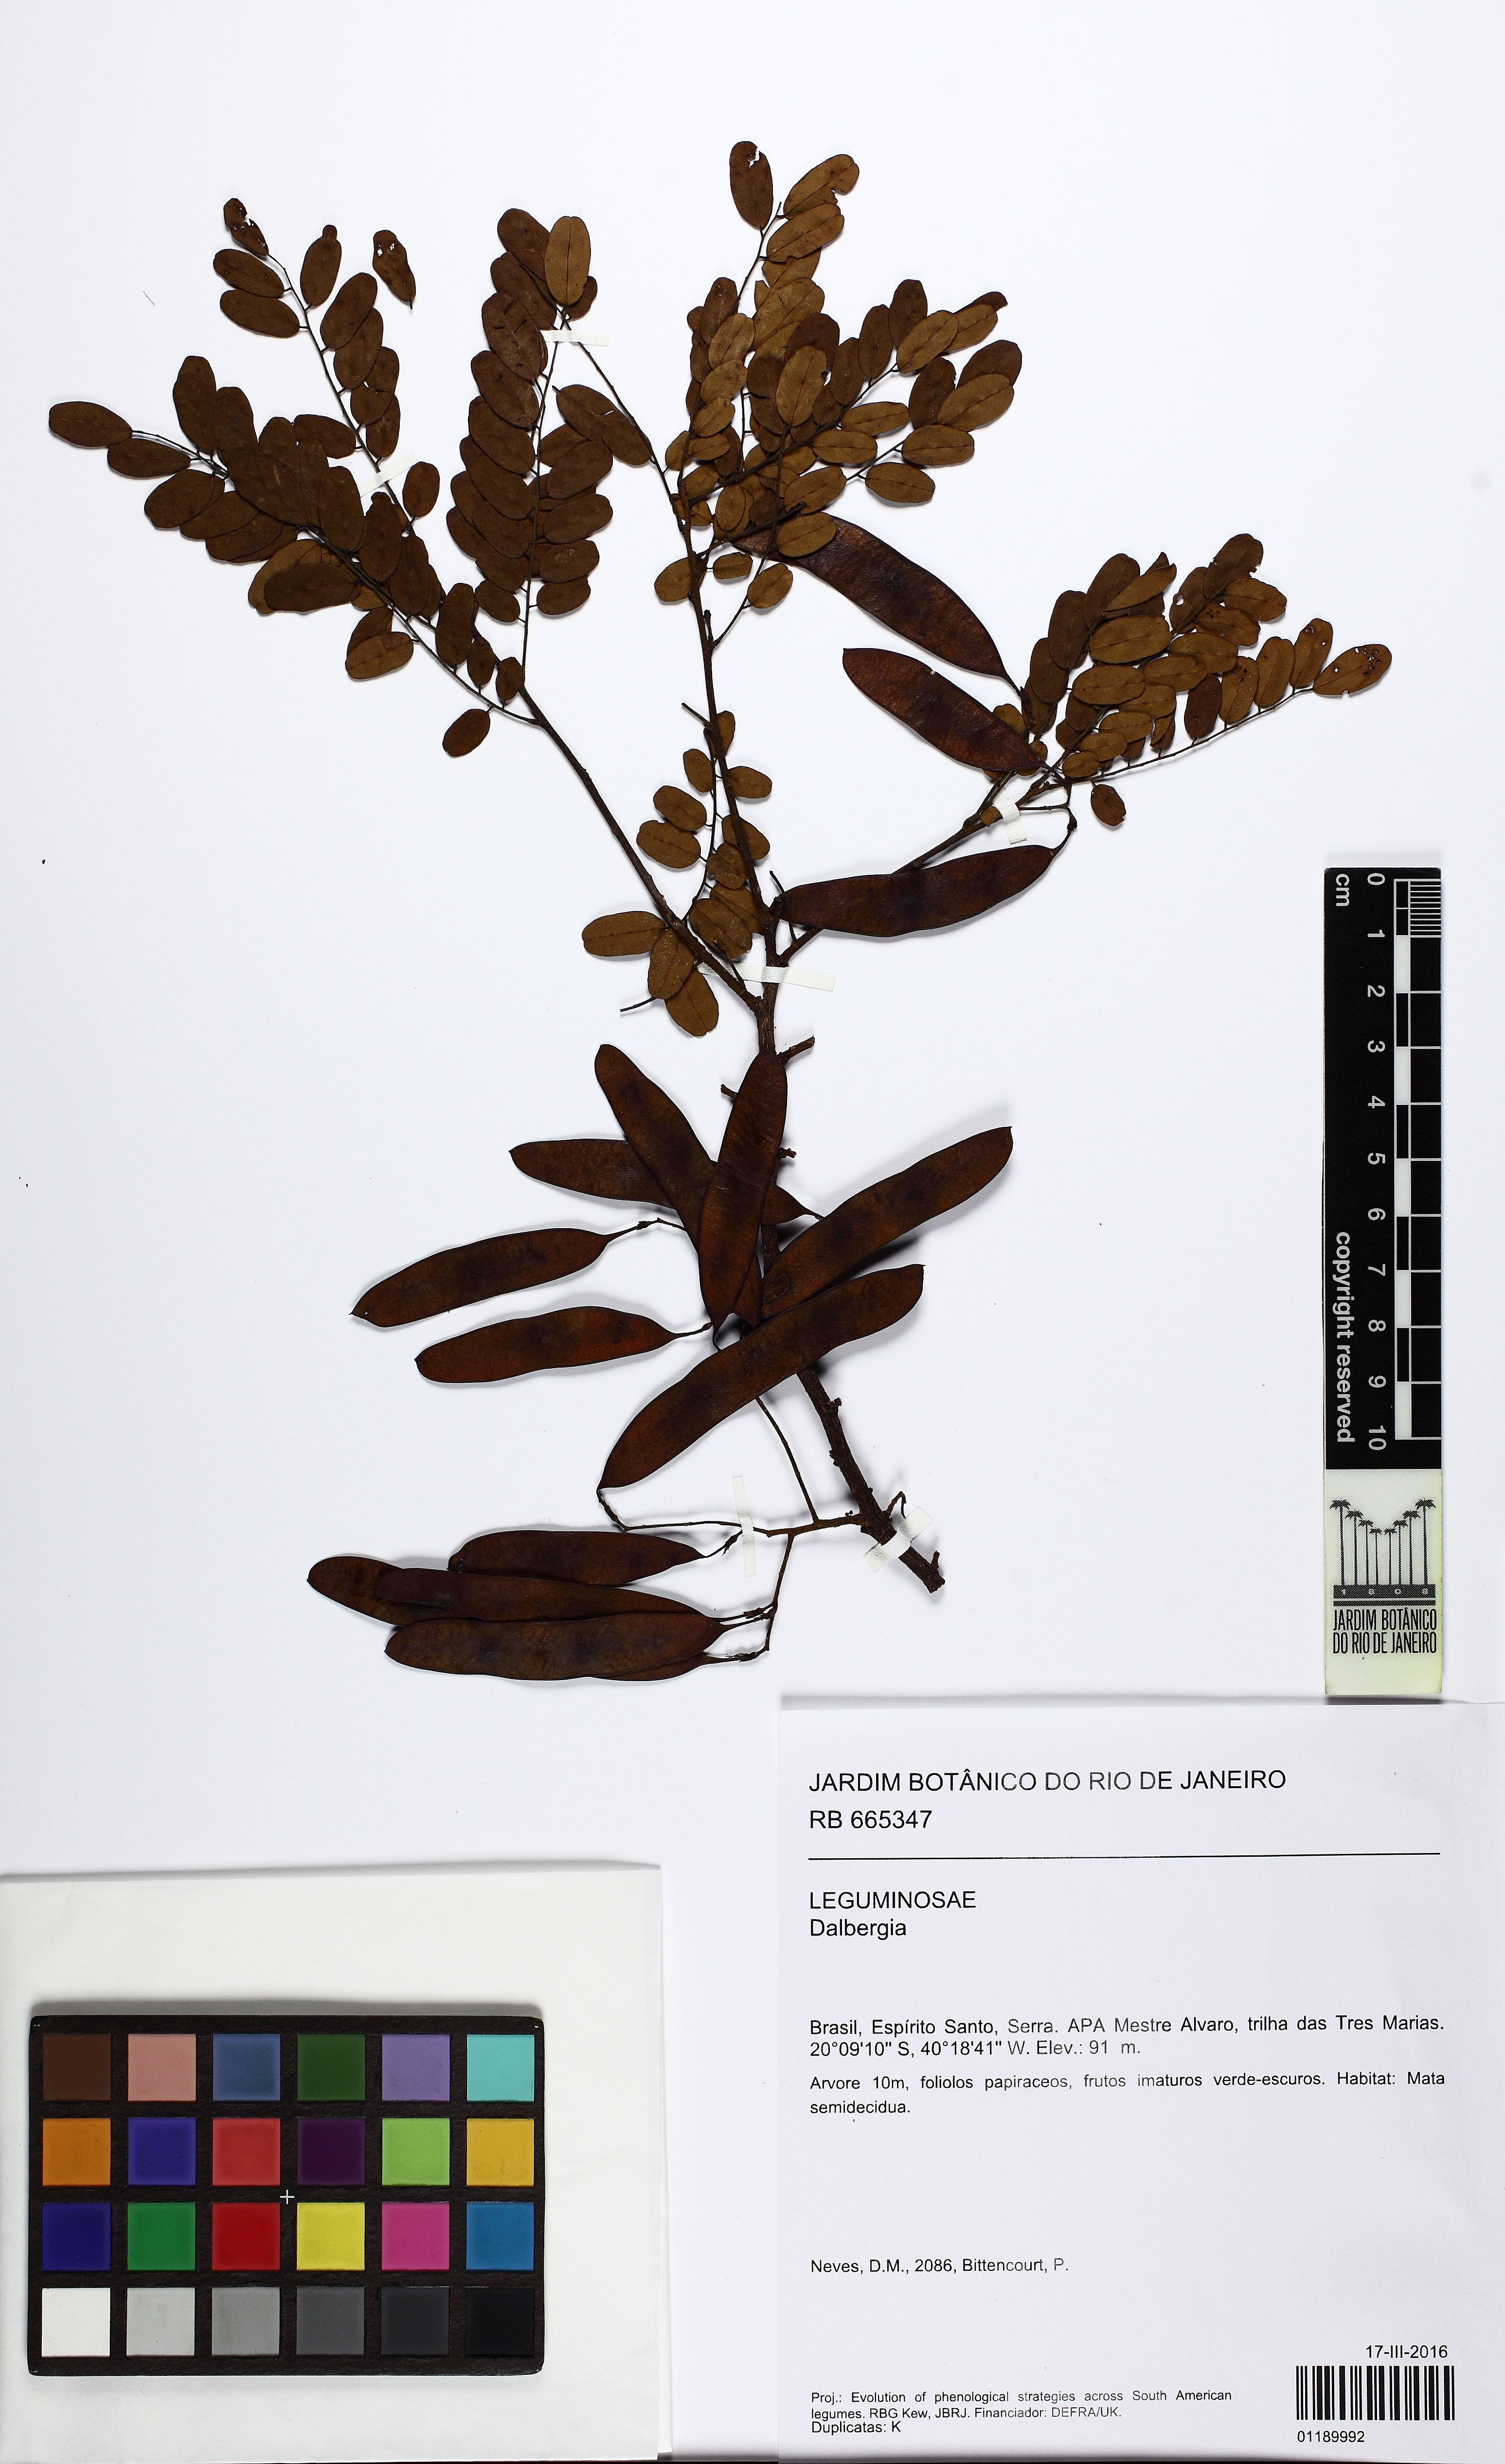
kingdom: Plantae
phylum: Tracheophyta
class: Magnoliopsida
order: Fabales
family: Fabaceae
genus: Dalbergia
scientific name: Dalbergia nigra
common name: Bahia rosewood
